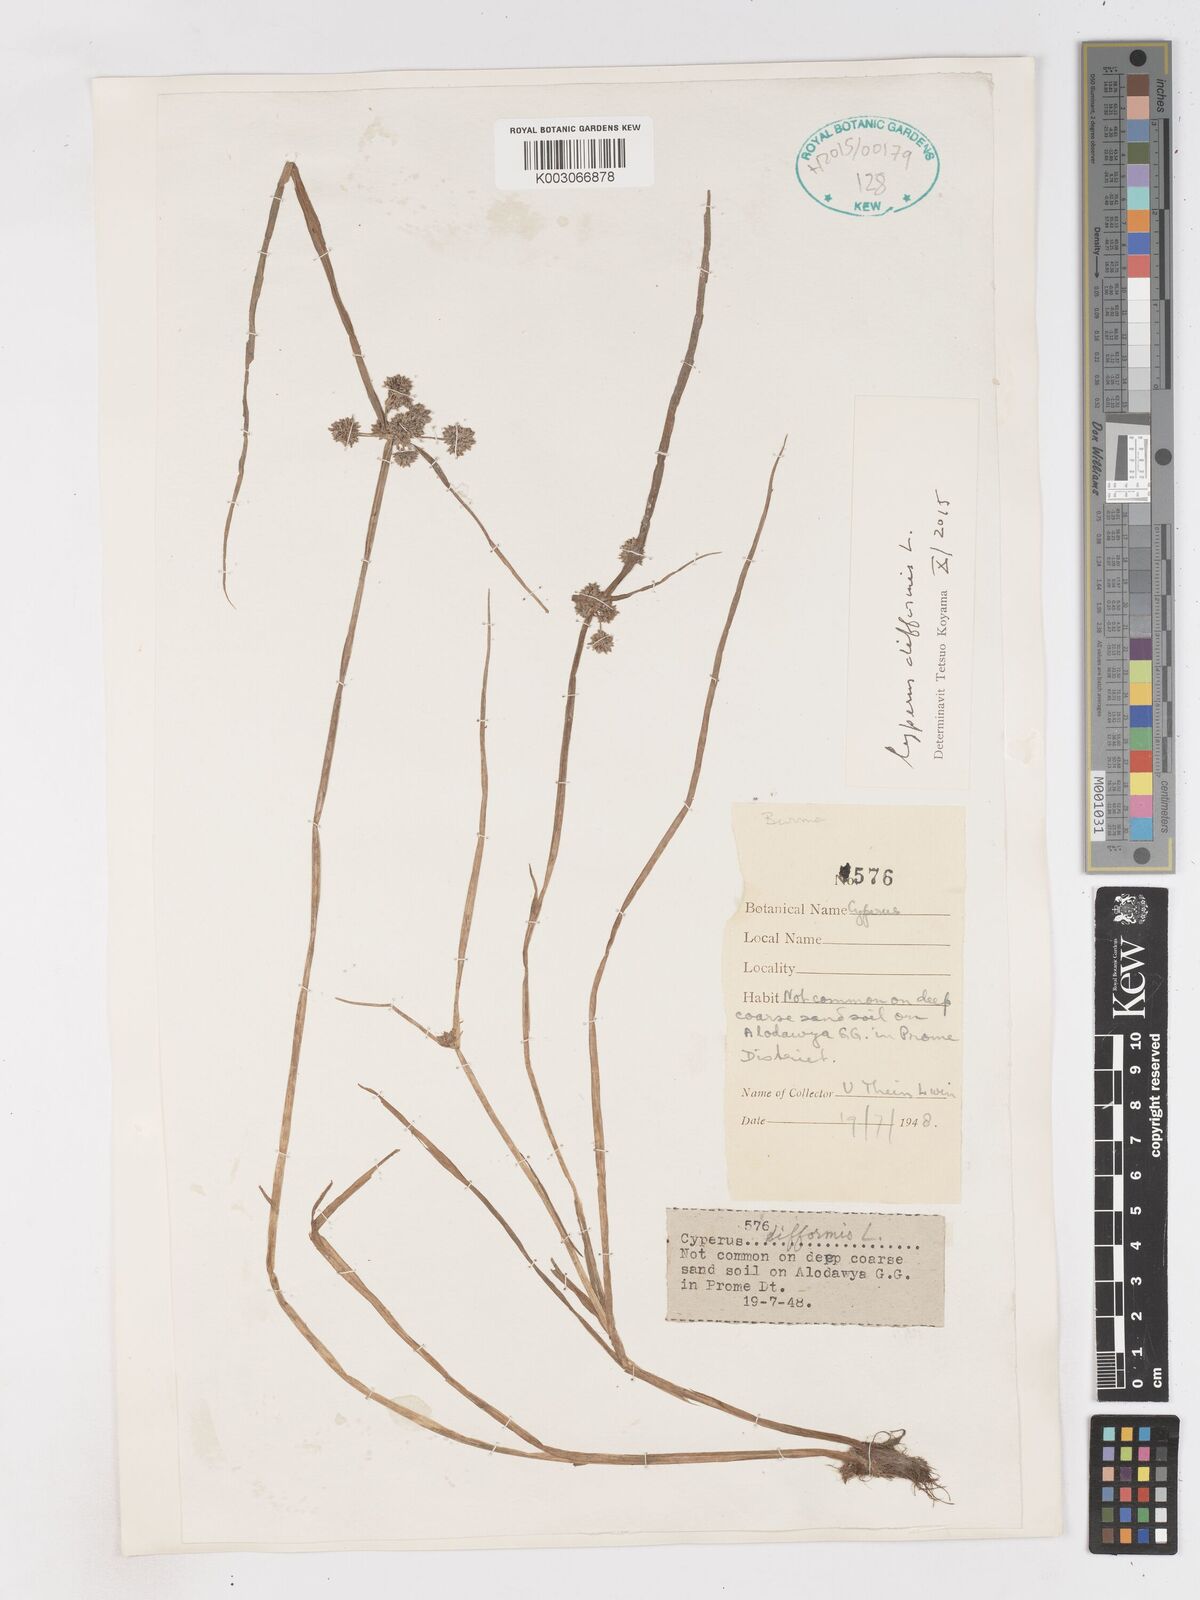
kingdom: Plantae
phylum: Tracheophyta
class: Liliopsida
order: Poales
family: Cyperaceae
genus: Cyperus
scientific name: Cyperus difformis
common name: Variable flatsedge
